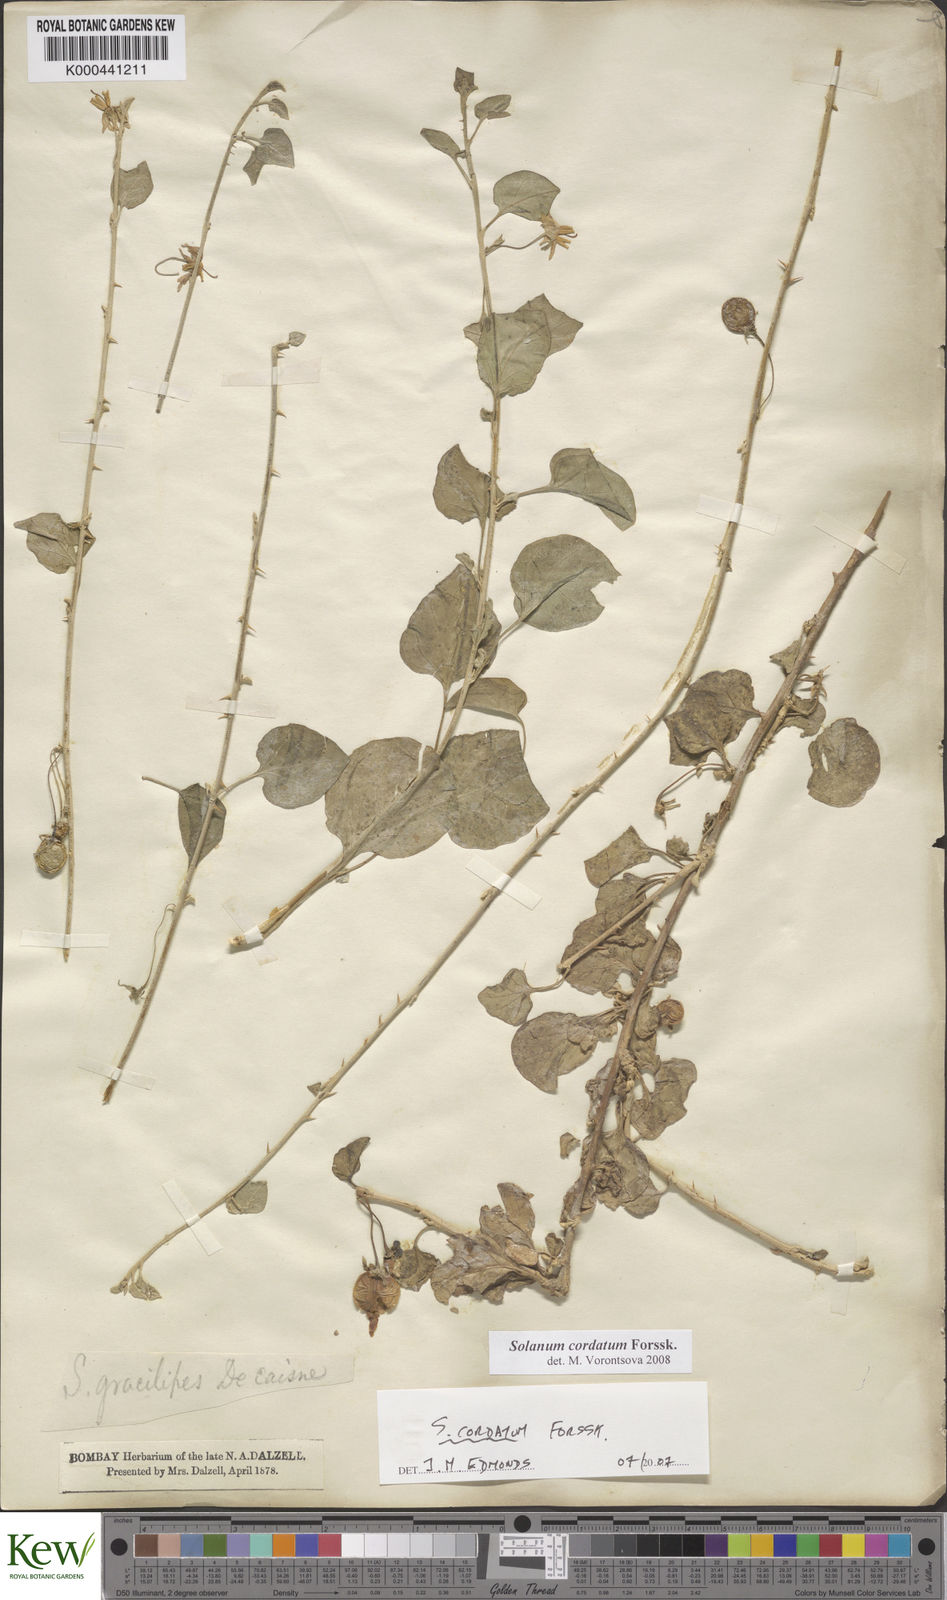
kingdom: Plantae
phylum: Tracheophyta
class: Magnoliopsida
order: Solanales
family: Solanaceae
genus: Solanum
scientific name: Solanum cordatum
